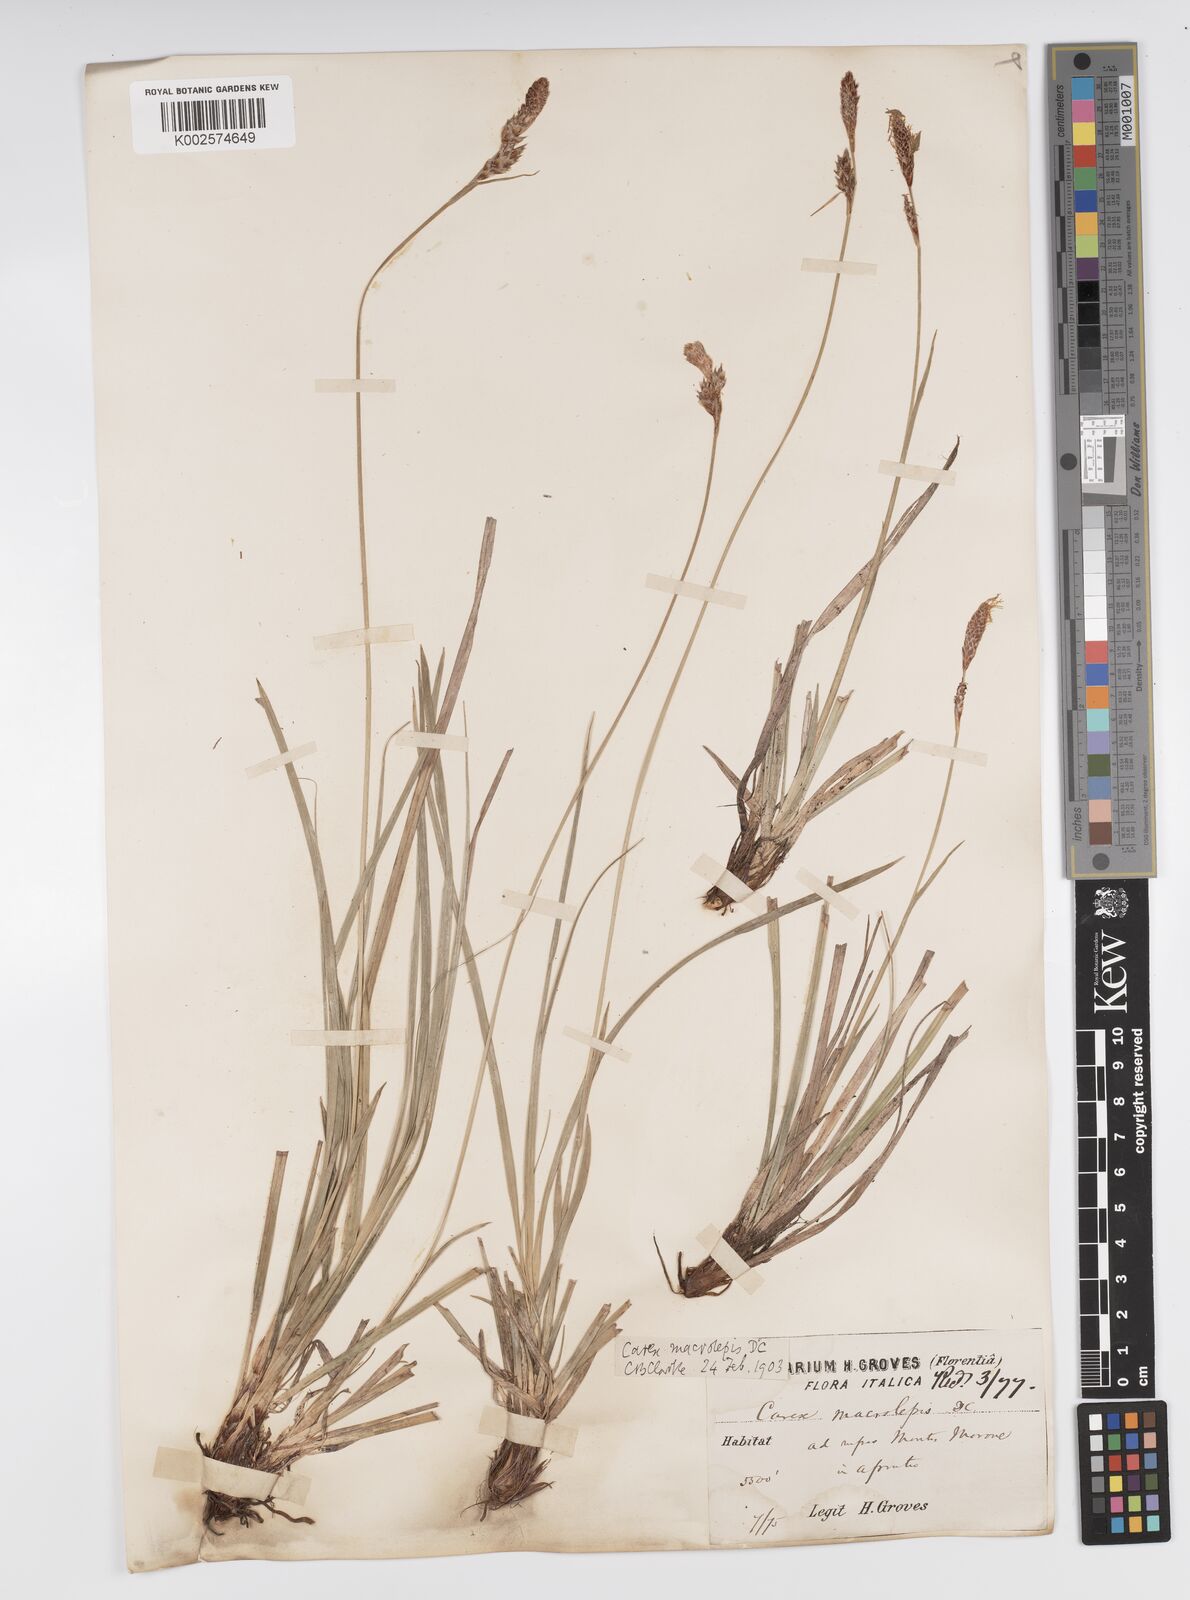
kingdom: Plantae
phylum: Tracheophyta
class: Liliopsida
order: Poales
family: Cyperaceae
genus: Carex
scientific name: Carex macrolepis
